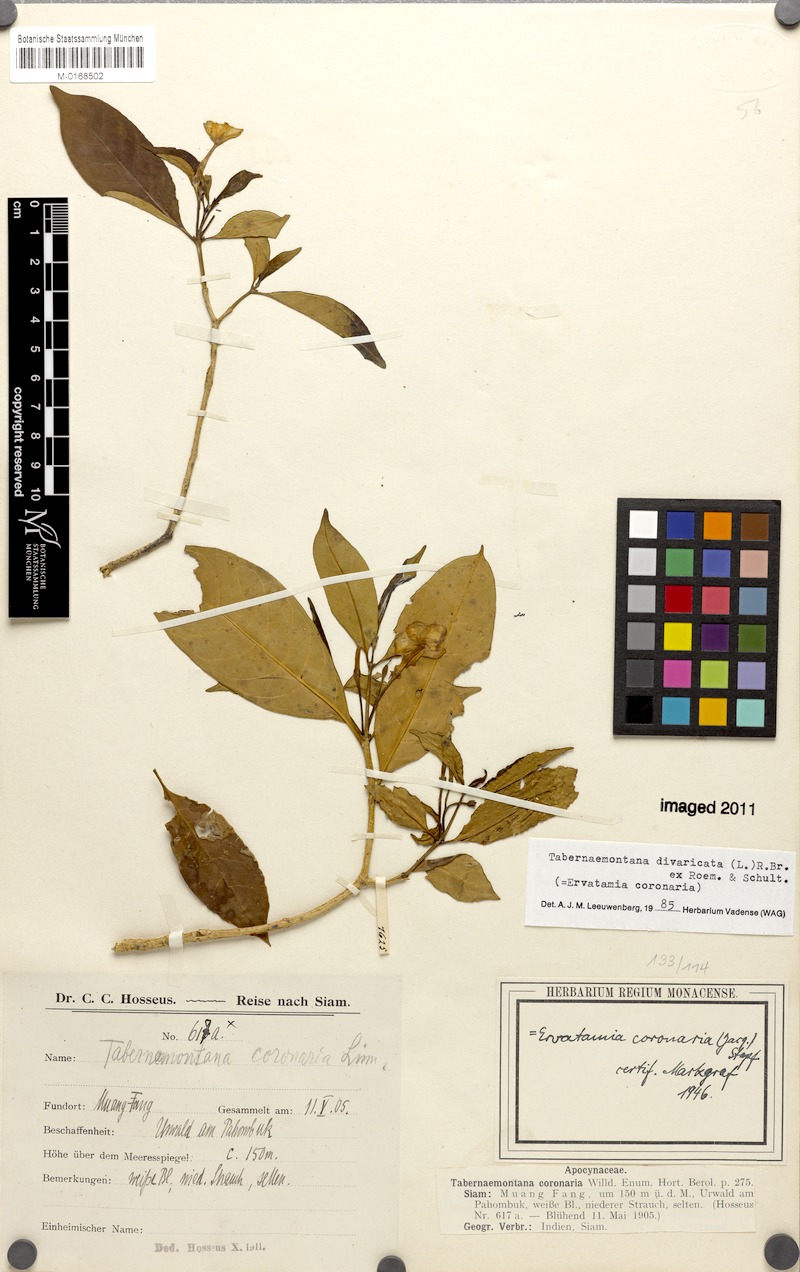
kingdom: Plantae
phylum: Tracheophyta
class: Magnoliopsida
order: Gentianales
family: Apocynaceae
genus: Tabernaemontana
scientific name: Tabernaemontana divaricata
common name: Pinwheelflower
